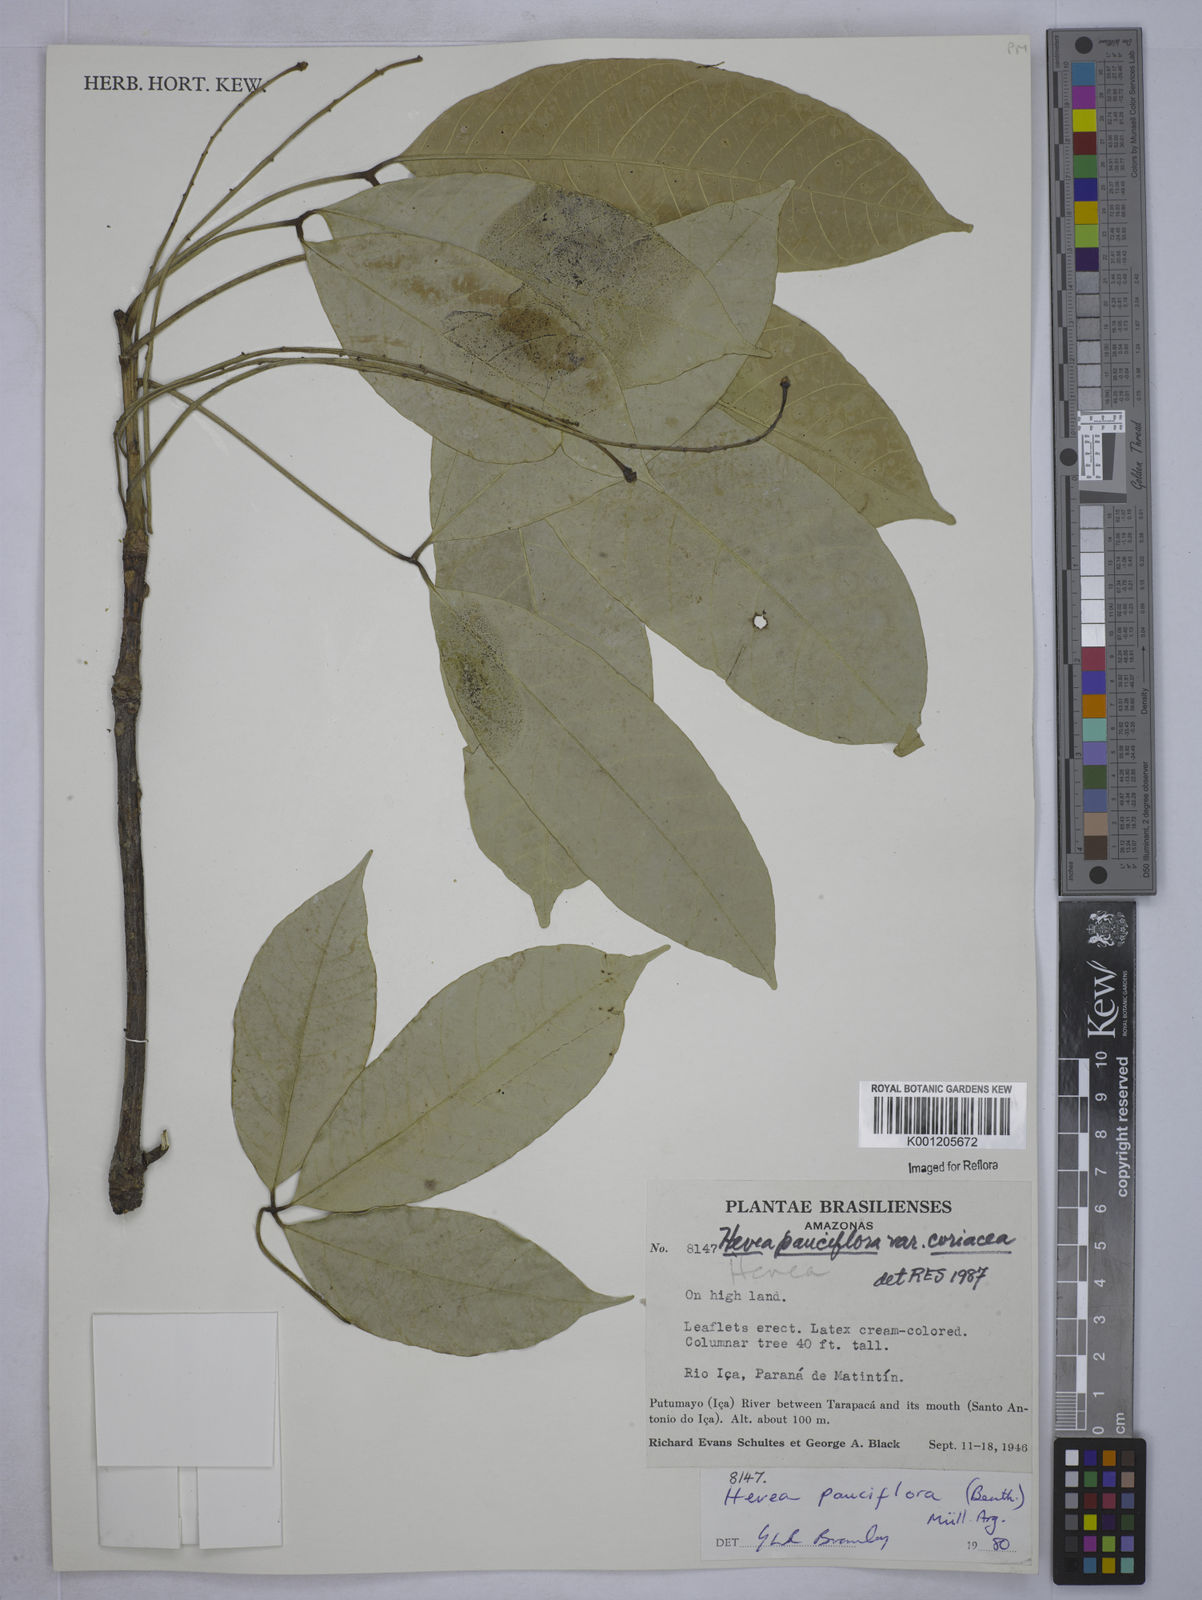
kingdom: Plantae
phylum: Tracheophyta
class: Magnoliopsida
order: Malpighiales
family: Euphorbiaceae
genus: Hevea
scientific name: Hevea pauciflora
